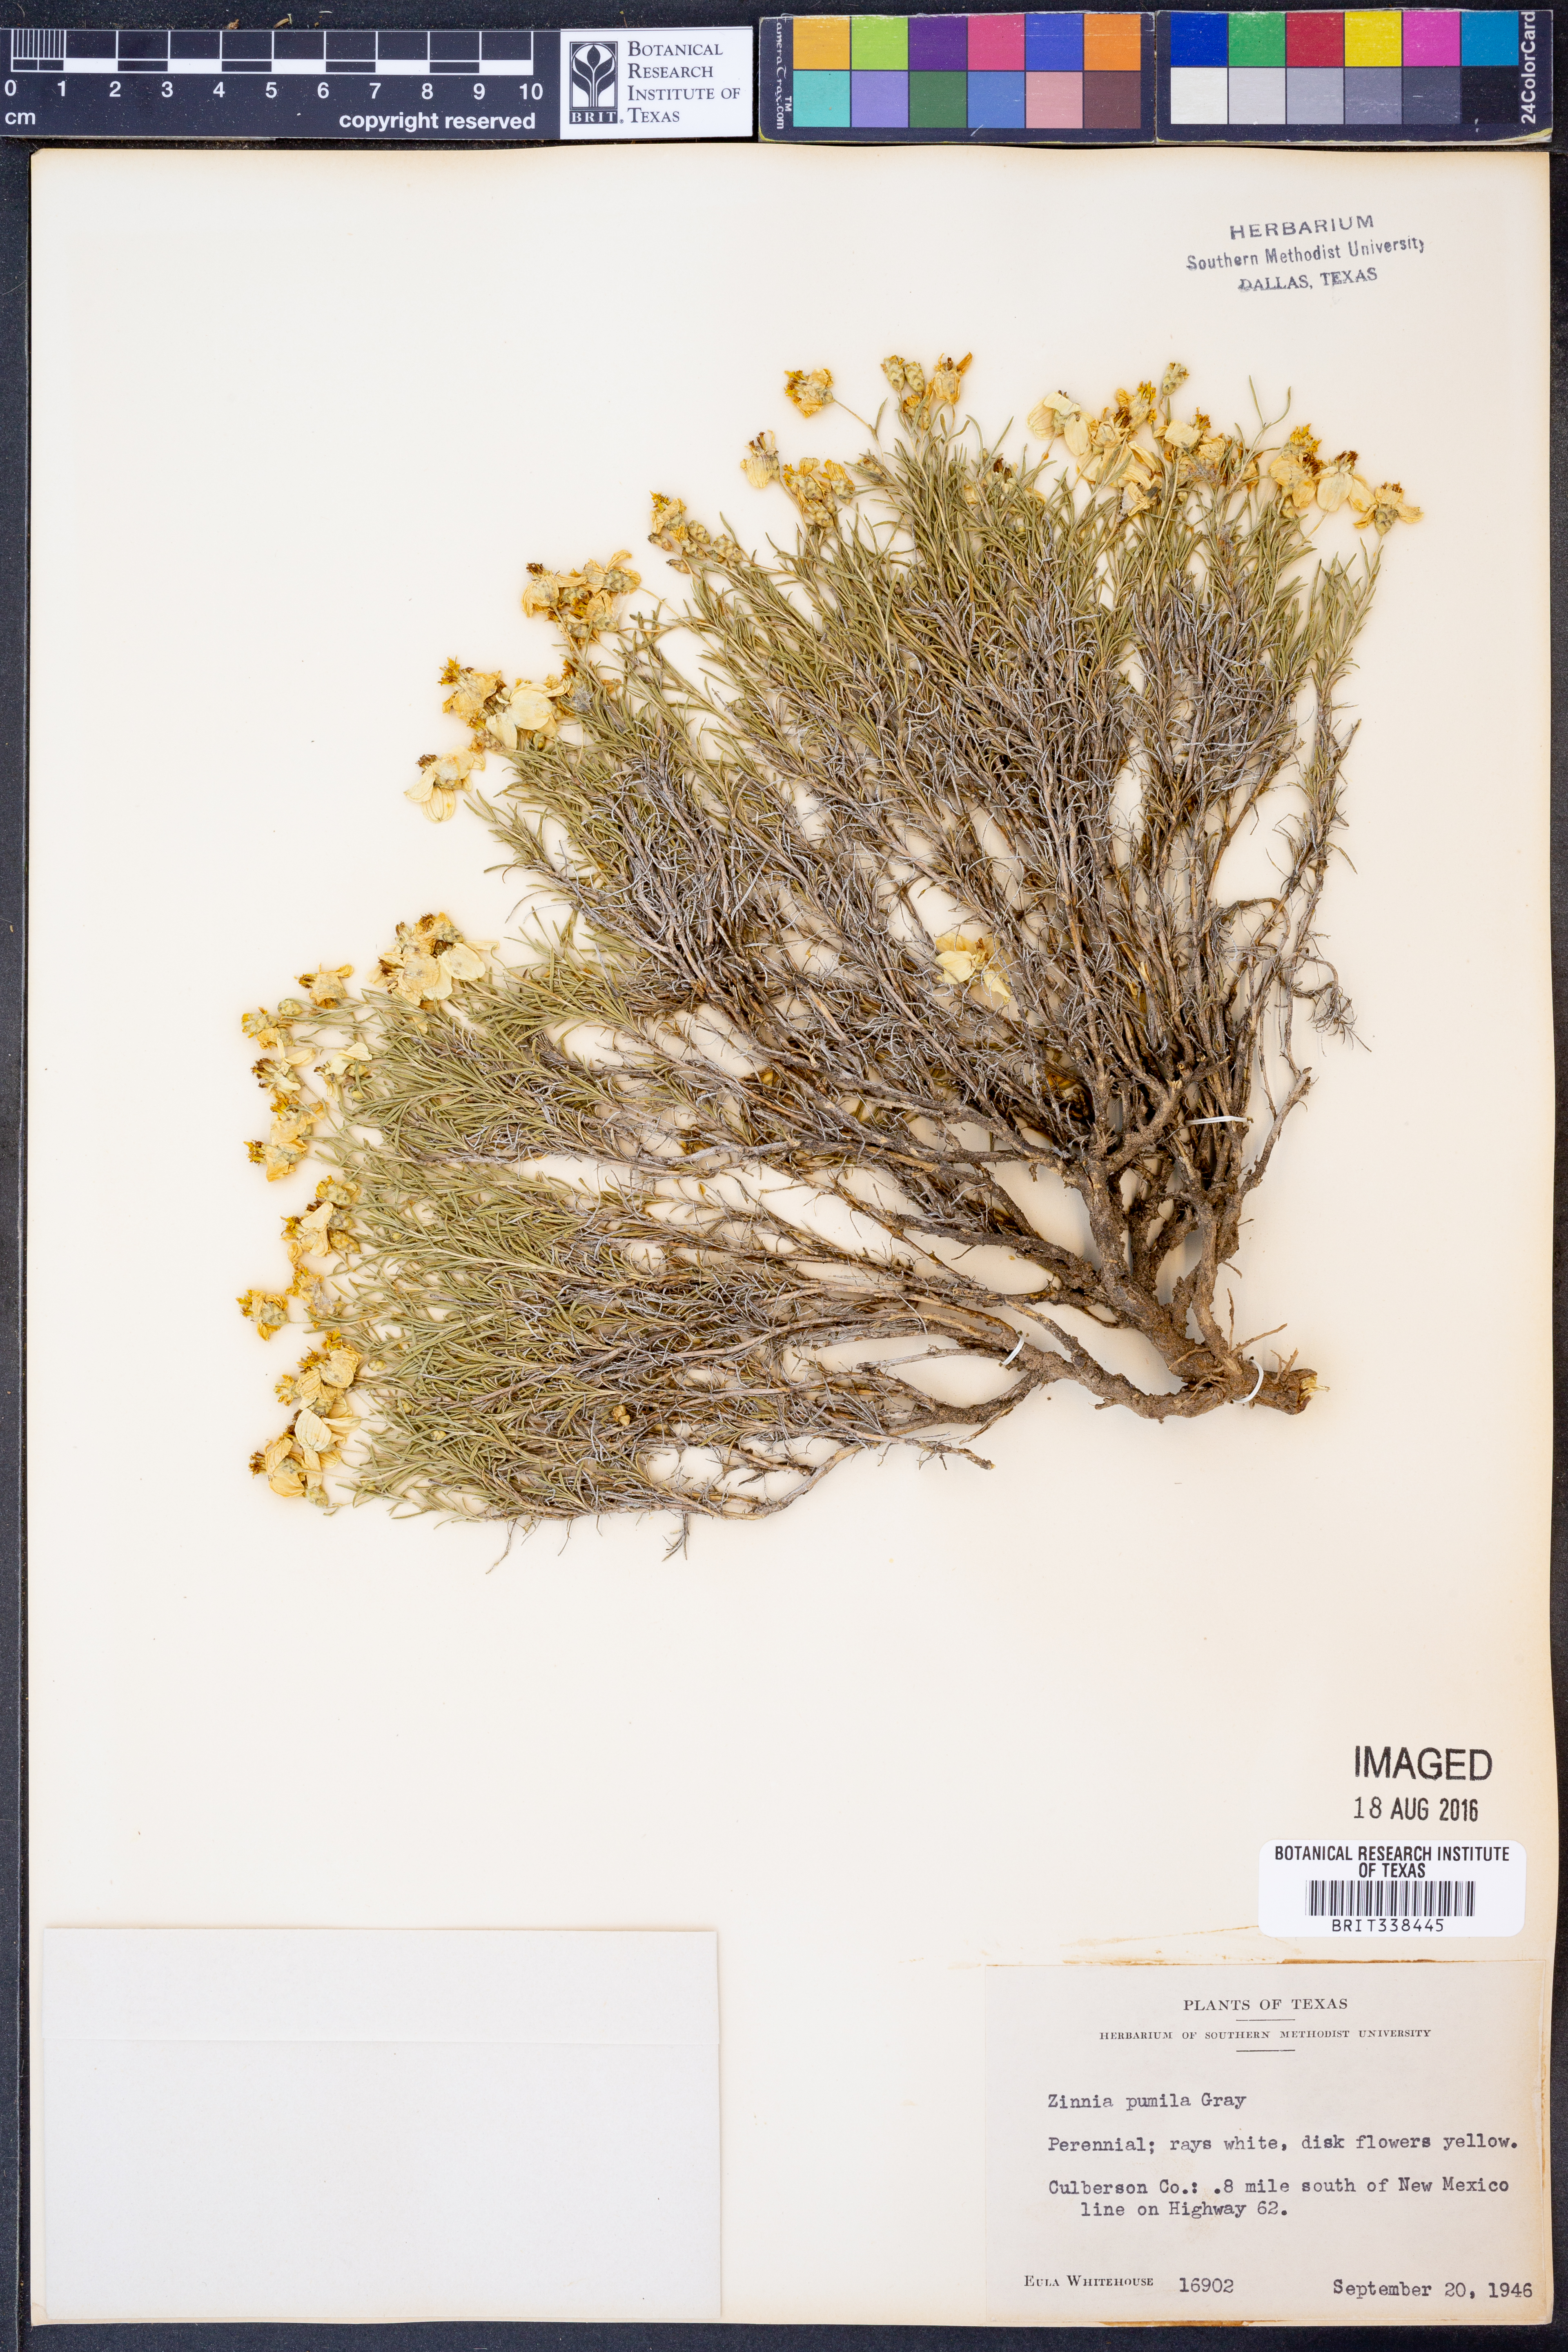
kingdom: Plantae
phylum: Tracheophyta
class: Magnoliopsida
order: Asterales
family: Asteraceae
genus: Zinnia
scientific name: Zinnia acerosa
